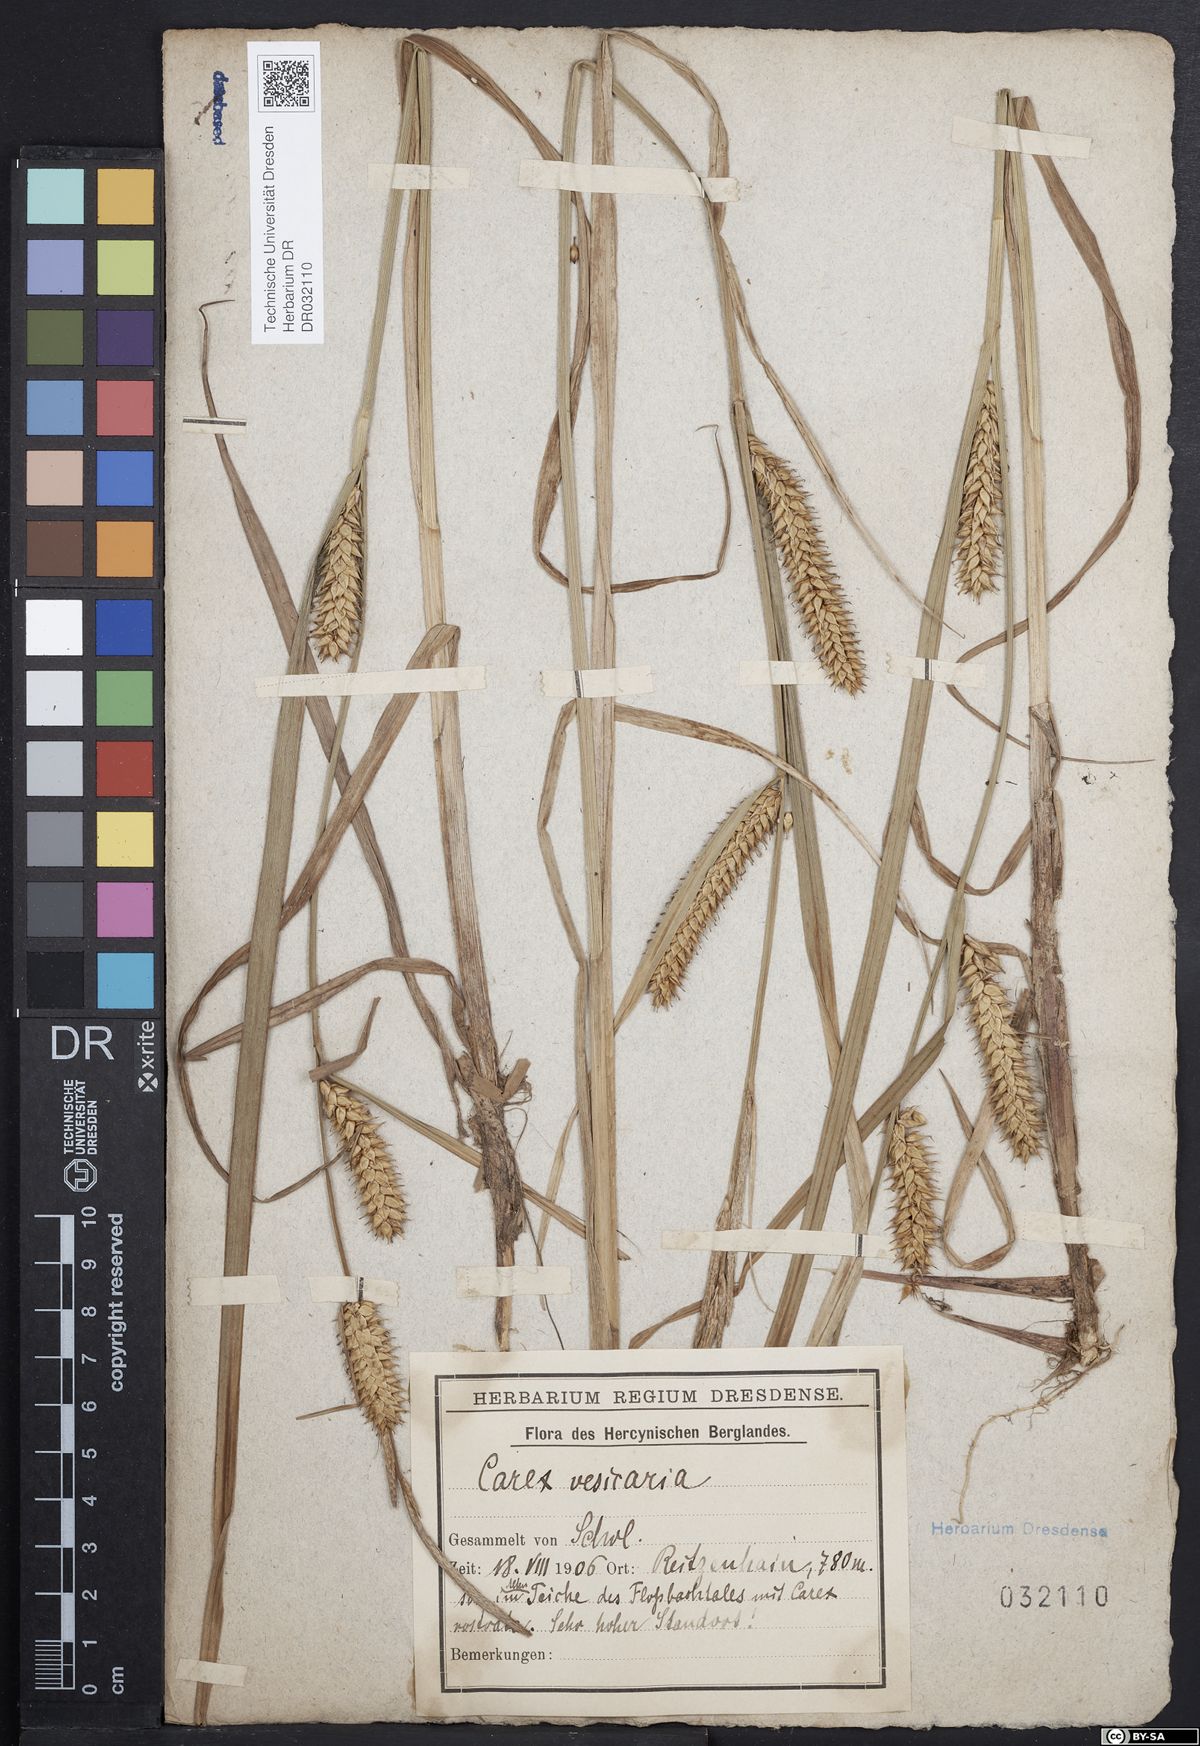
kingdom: Plantae
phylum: Tracheophyta
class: Liliopsida
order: Poales
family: Cyperaceae
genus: Carex
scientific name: Carex vesicaria
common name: Bladder-sedge
